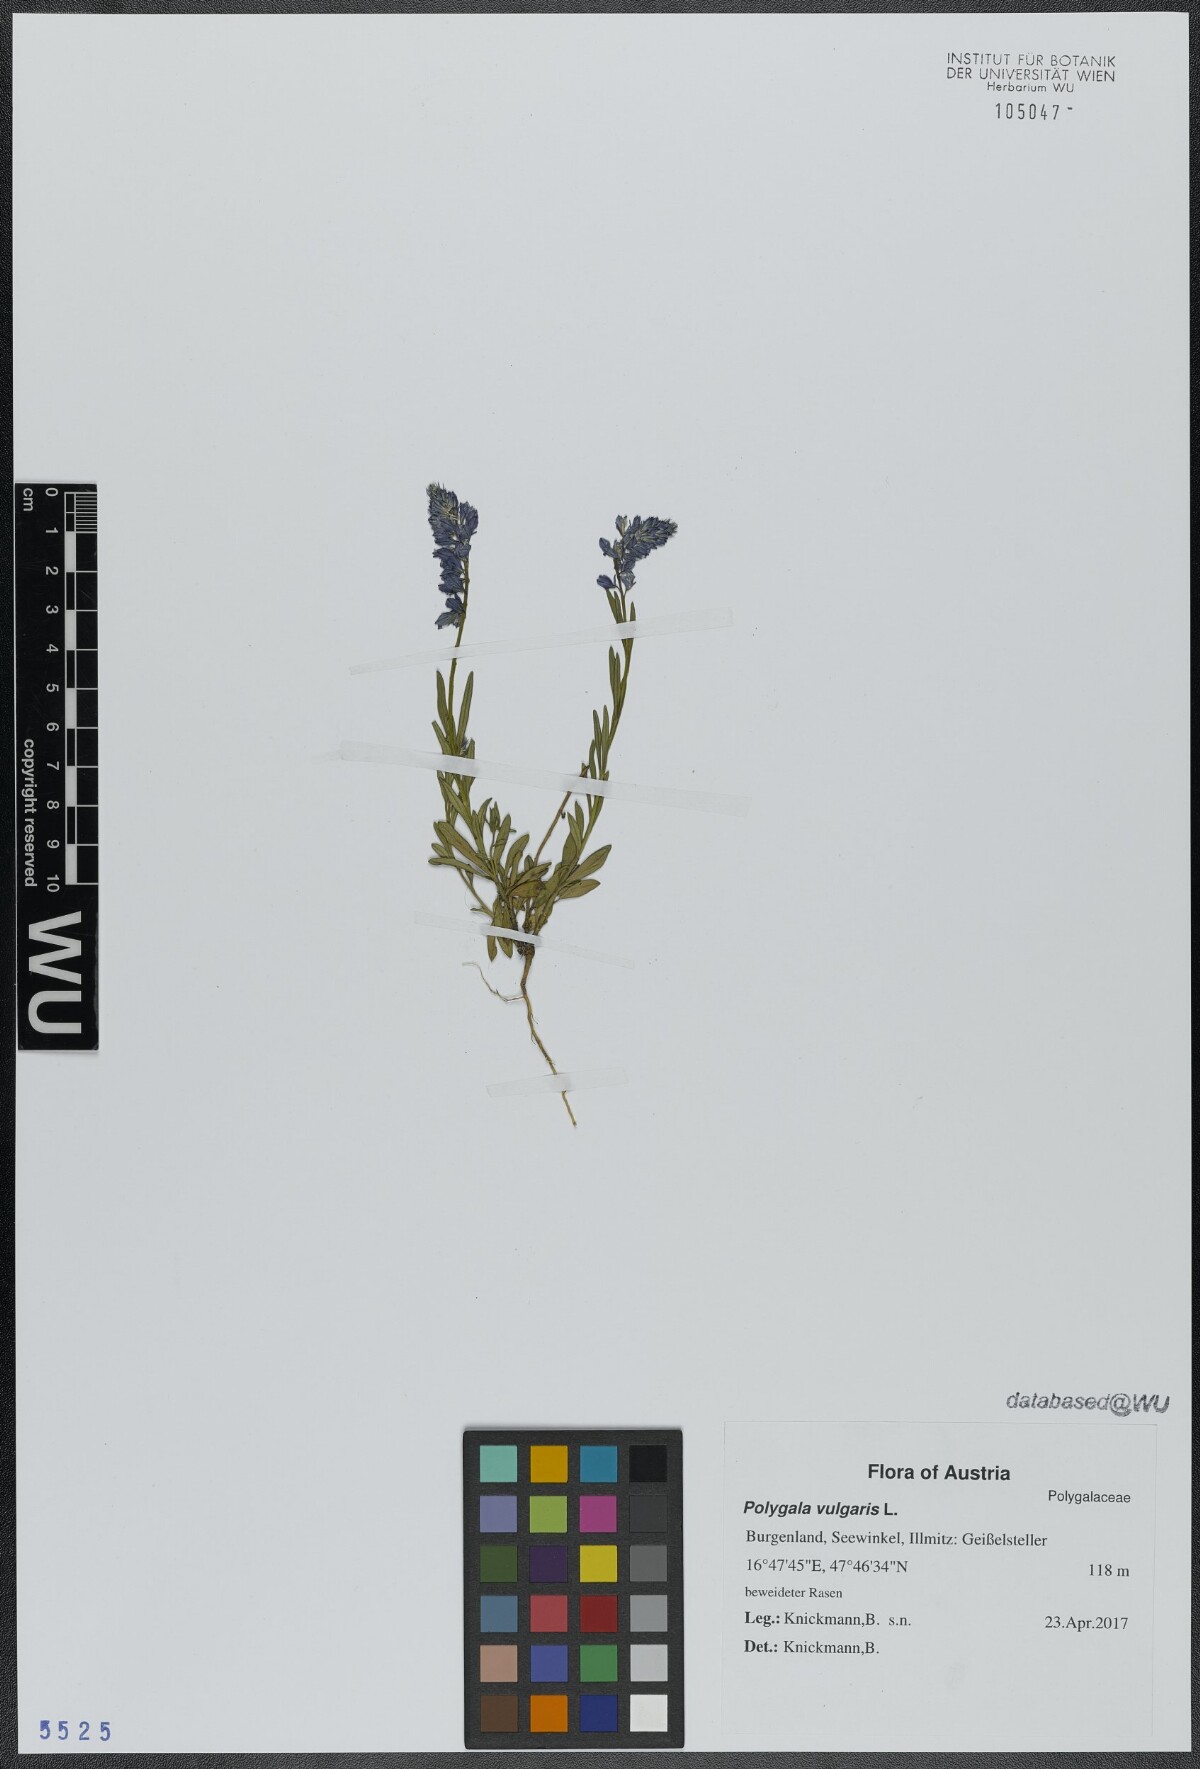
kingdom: Plantae
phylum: Tracheophyta
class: Magnoliopsida
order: Fabales
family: Polygalaceae
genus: Polygala
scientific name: Polygala vulgaris
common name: Common milkwort
